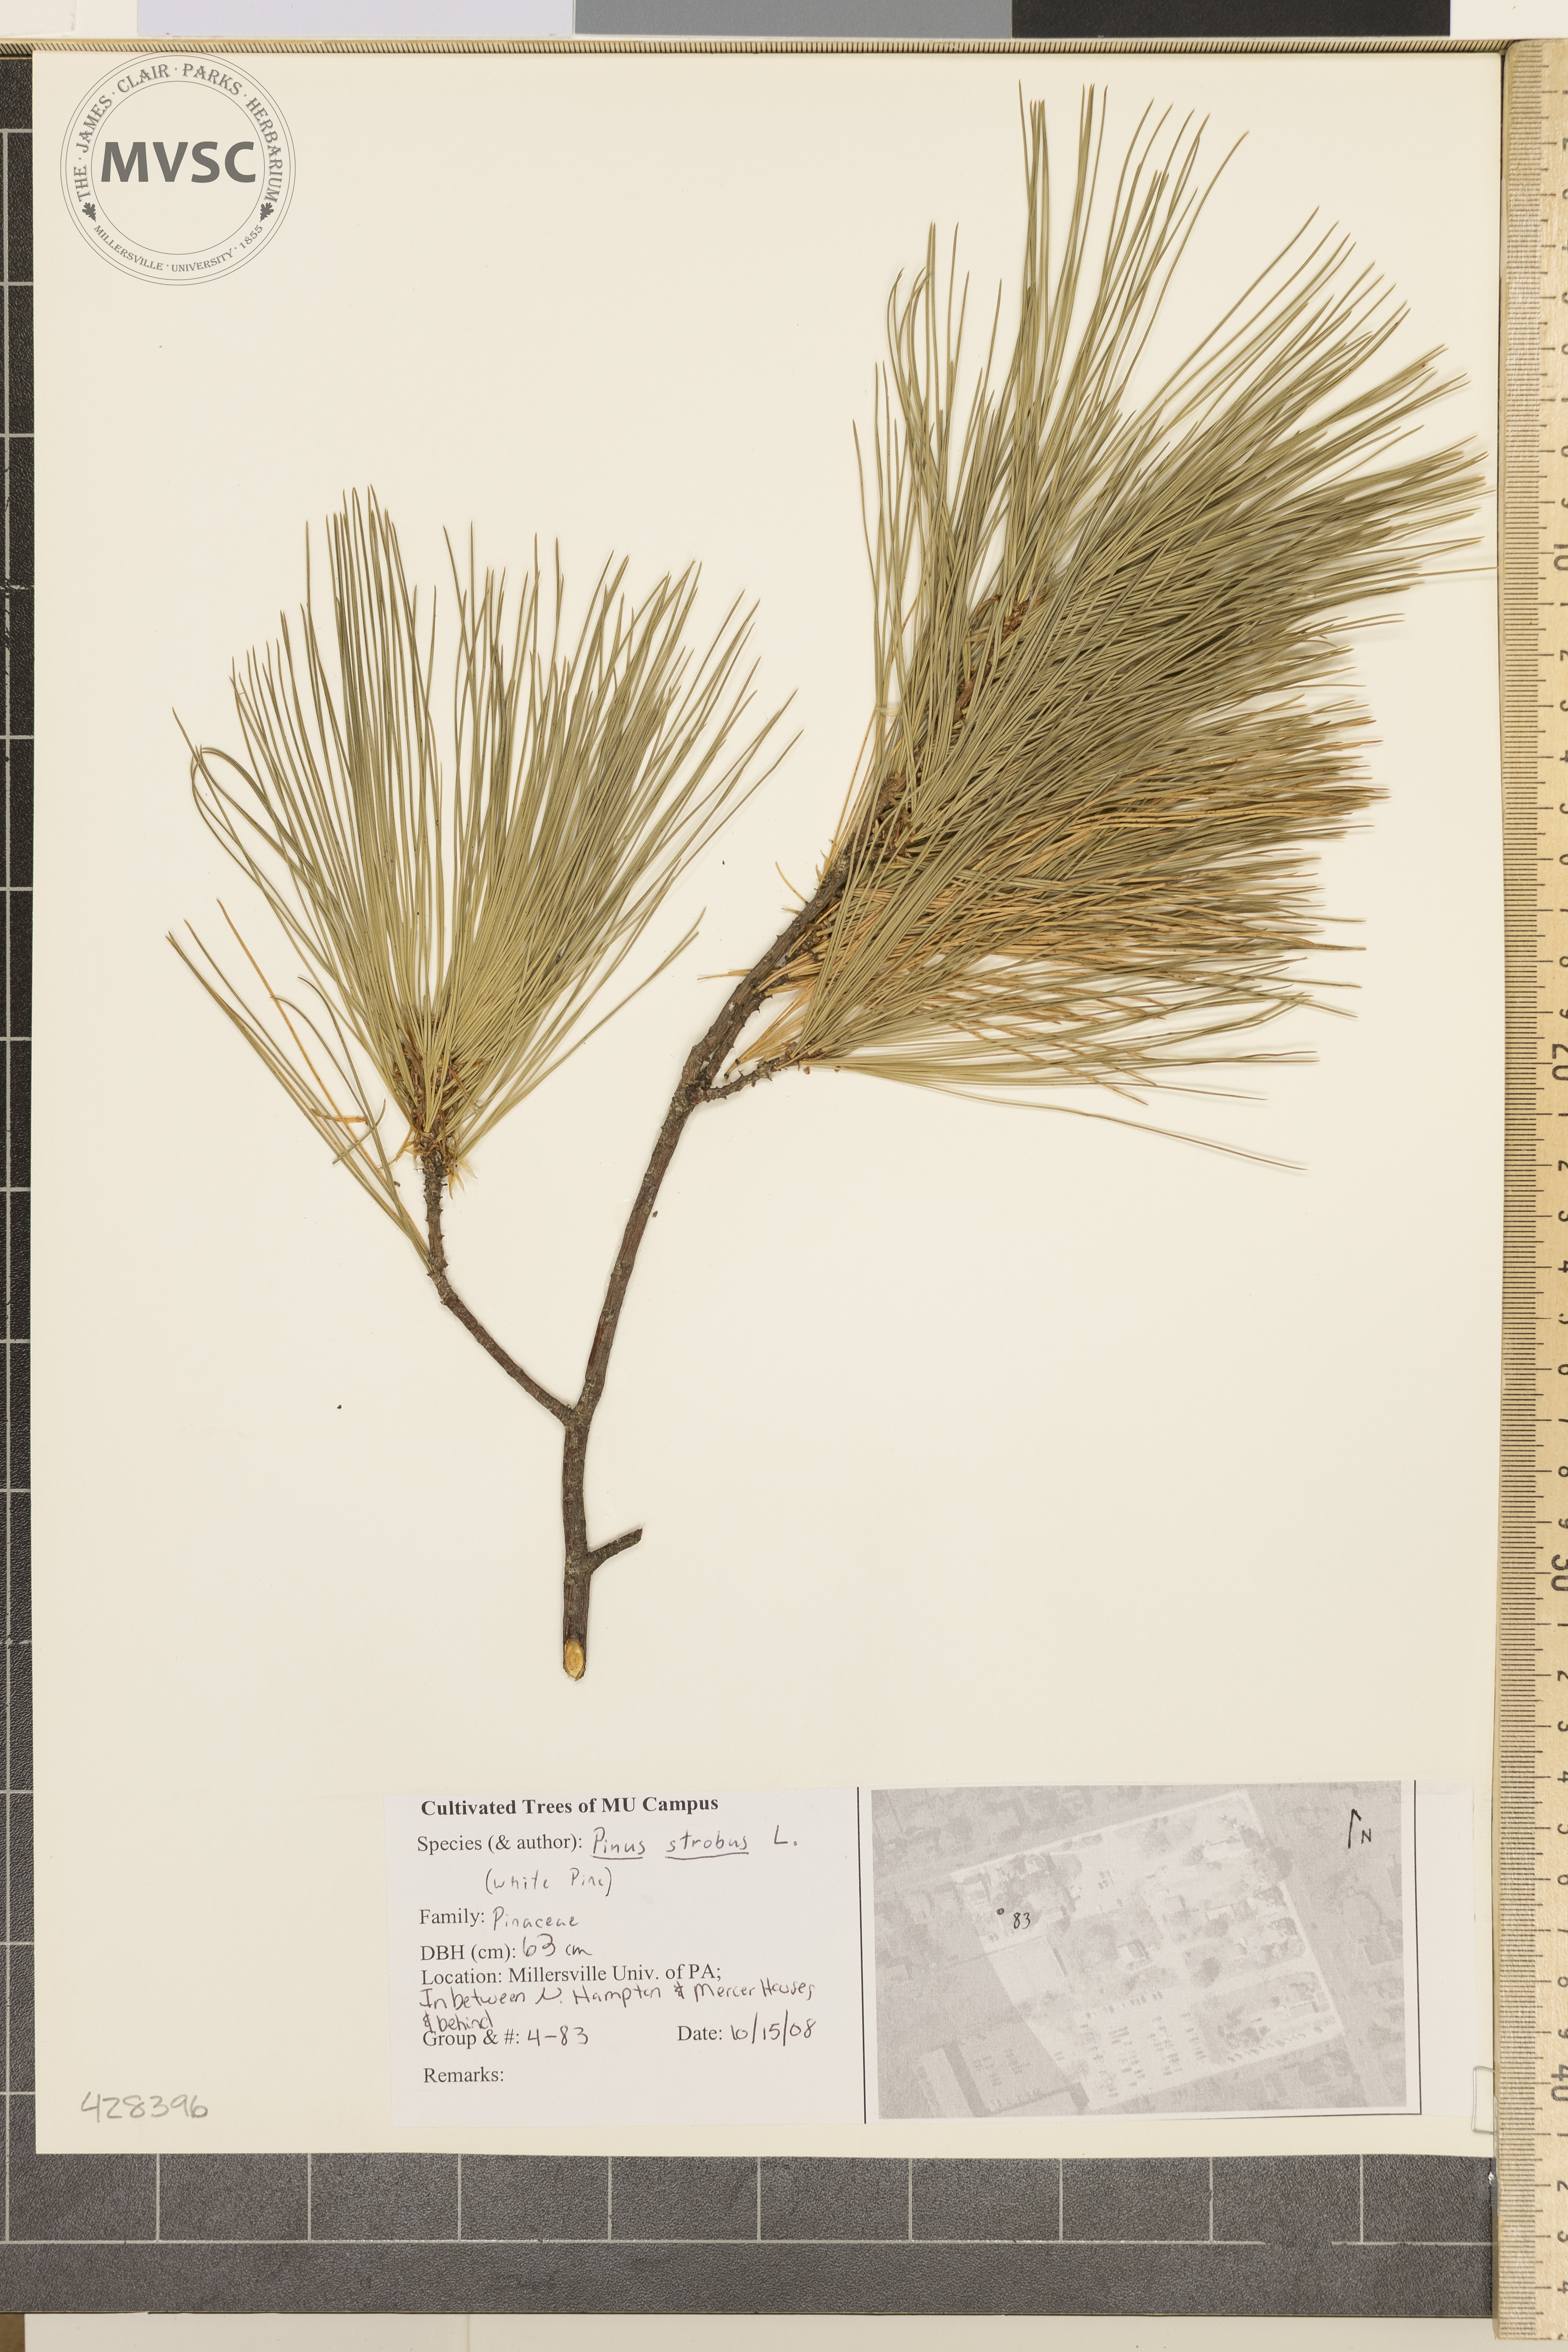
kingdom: Plantae
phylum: Tracheophyta
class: Pinopsida
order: Pinales
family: Pinaceae
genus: Pinus
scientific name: Pinus strobus
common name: White Pine
